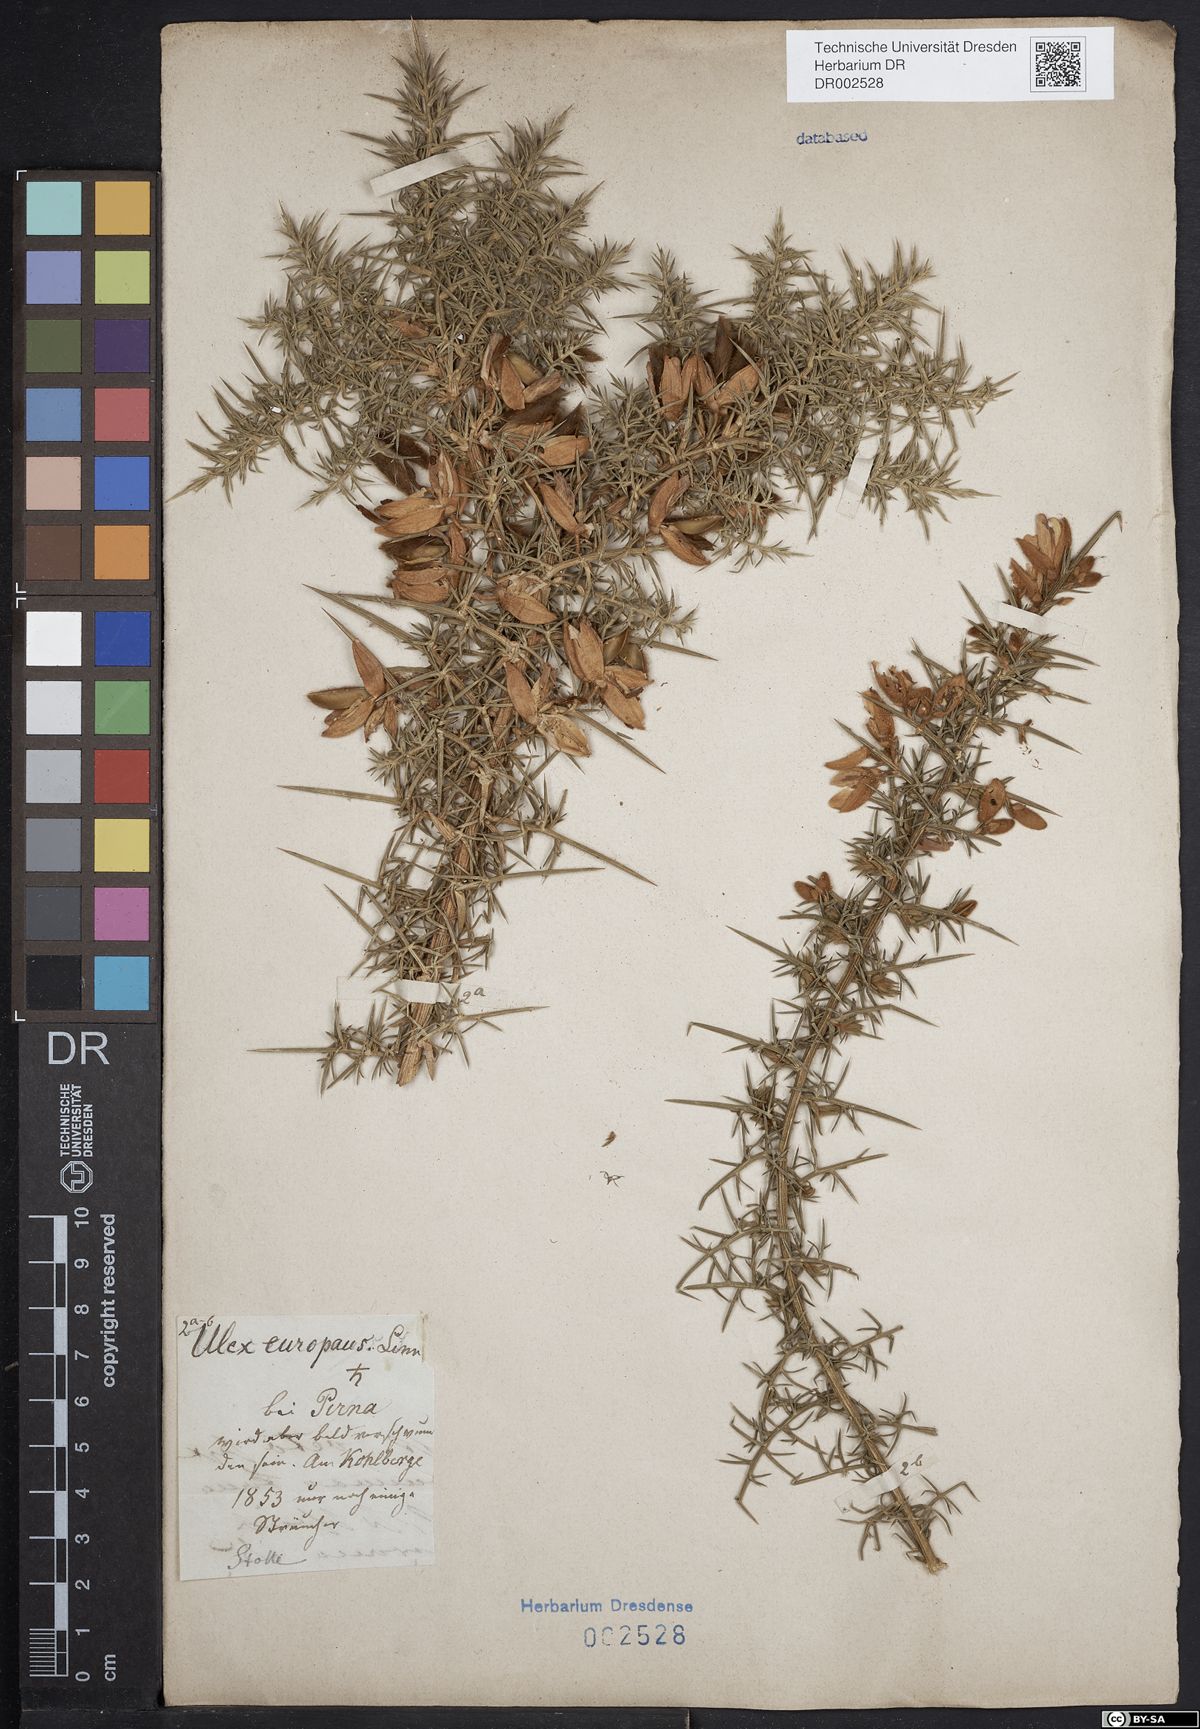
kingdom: Plantae
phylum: Tracheophyta
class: Magnoliopsida
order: Fabales
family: Fabaceae
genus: Ulex
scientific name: Ulex europaeus
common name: Common gorse
